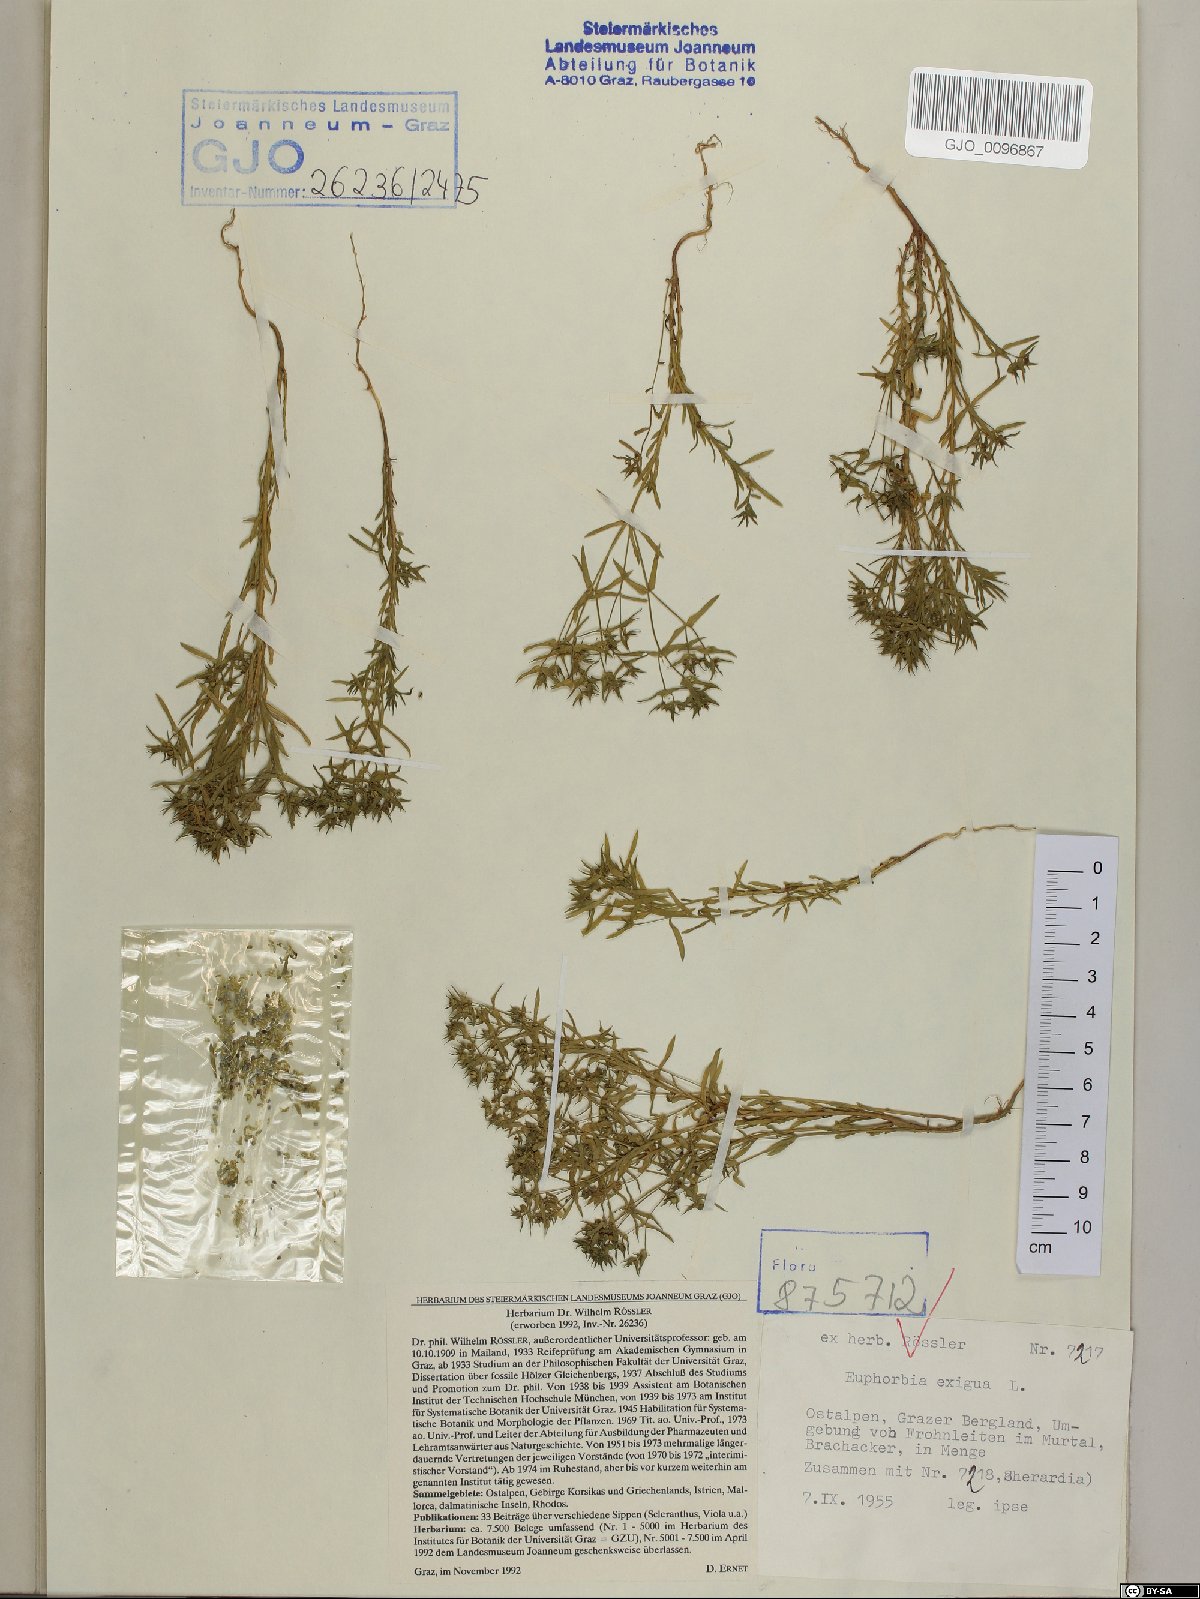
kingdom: Plantae
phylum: Tracheophyta
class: Magnoliopsida
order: Malpighiales
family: Euphorbiaceae
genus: Euphorbia
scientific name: Euphorbia exigua
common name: Dwarf spurge
